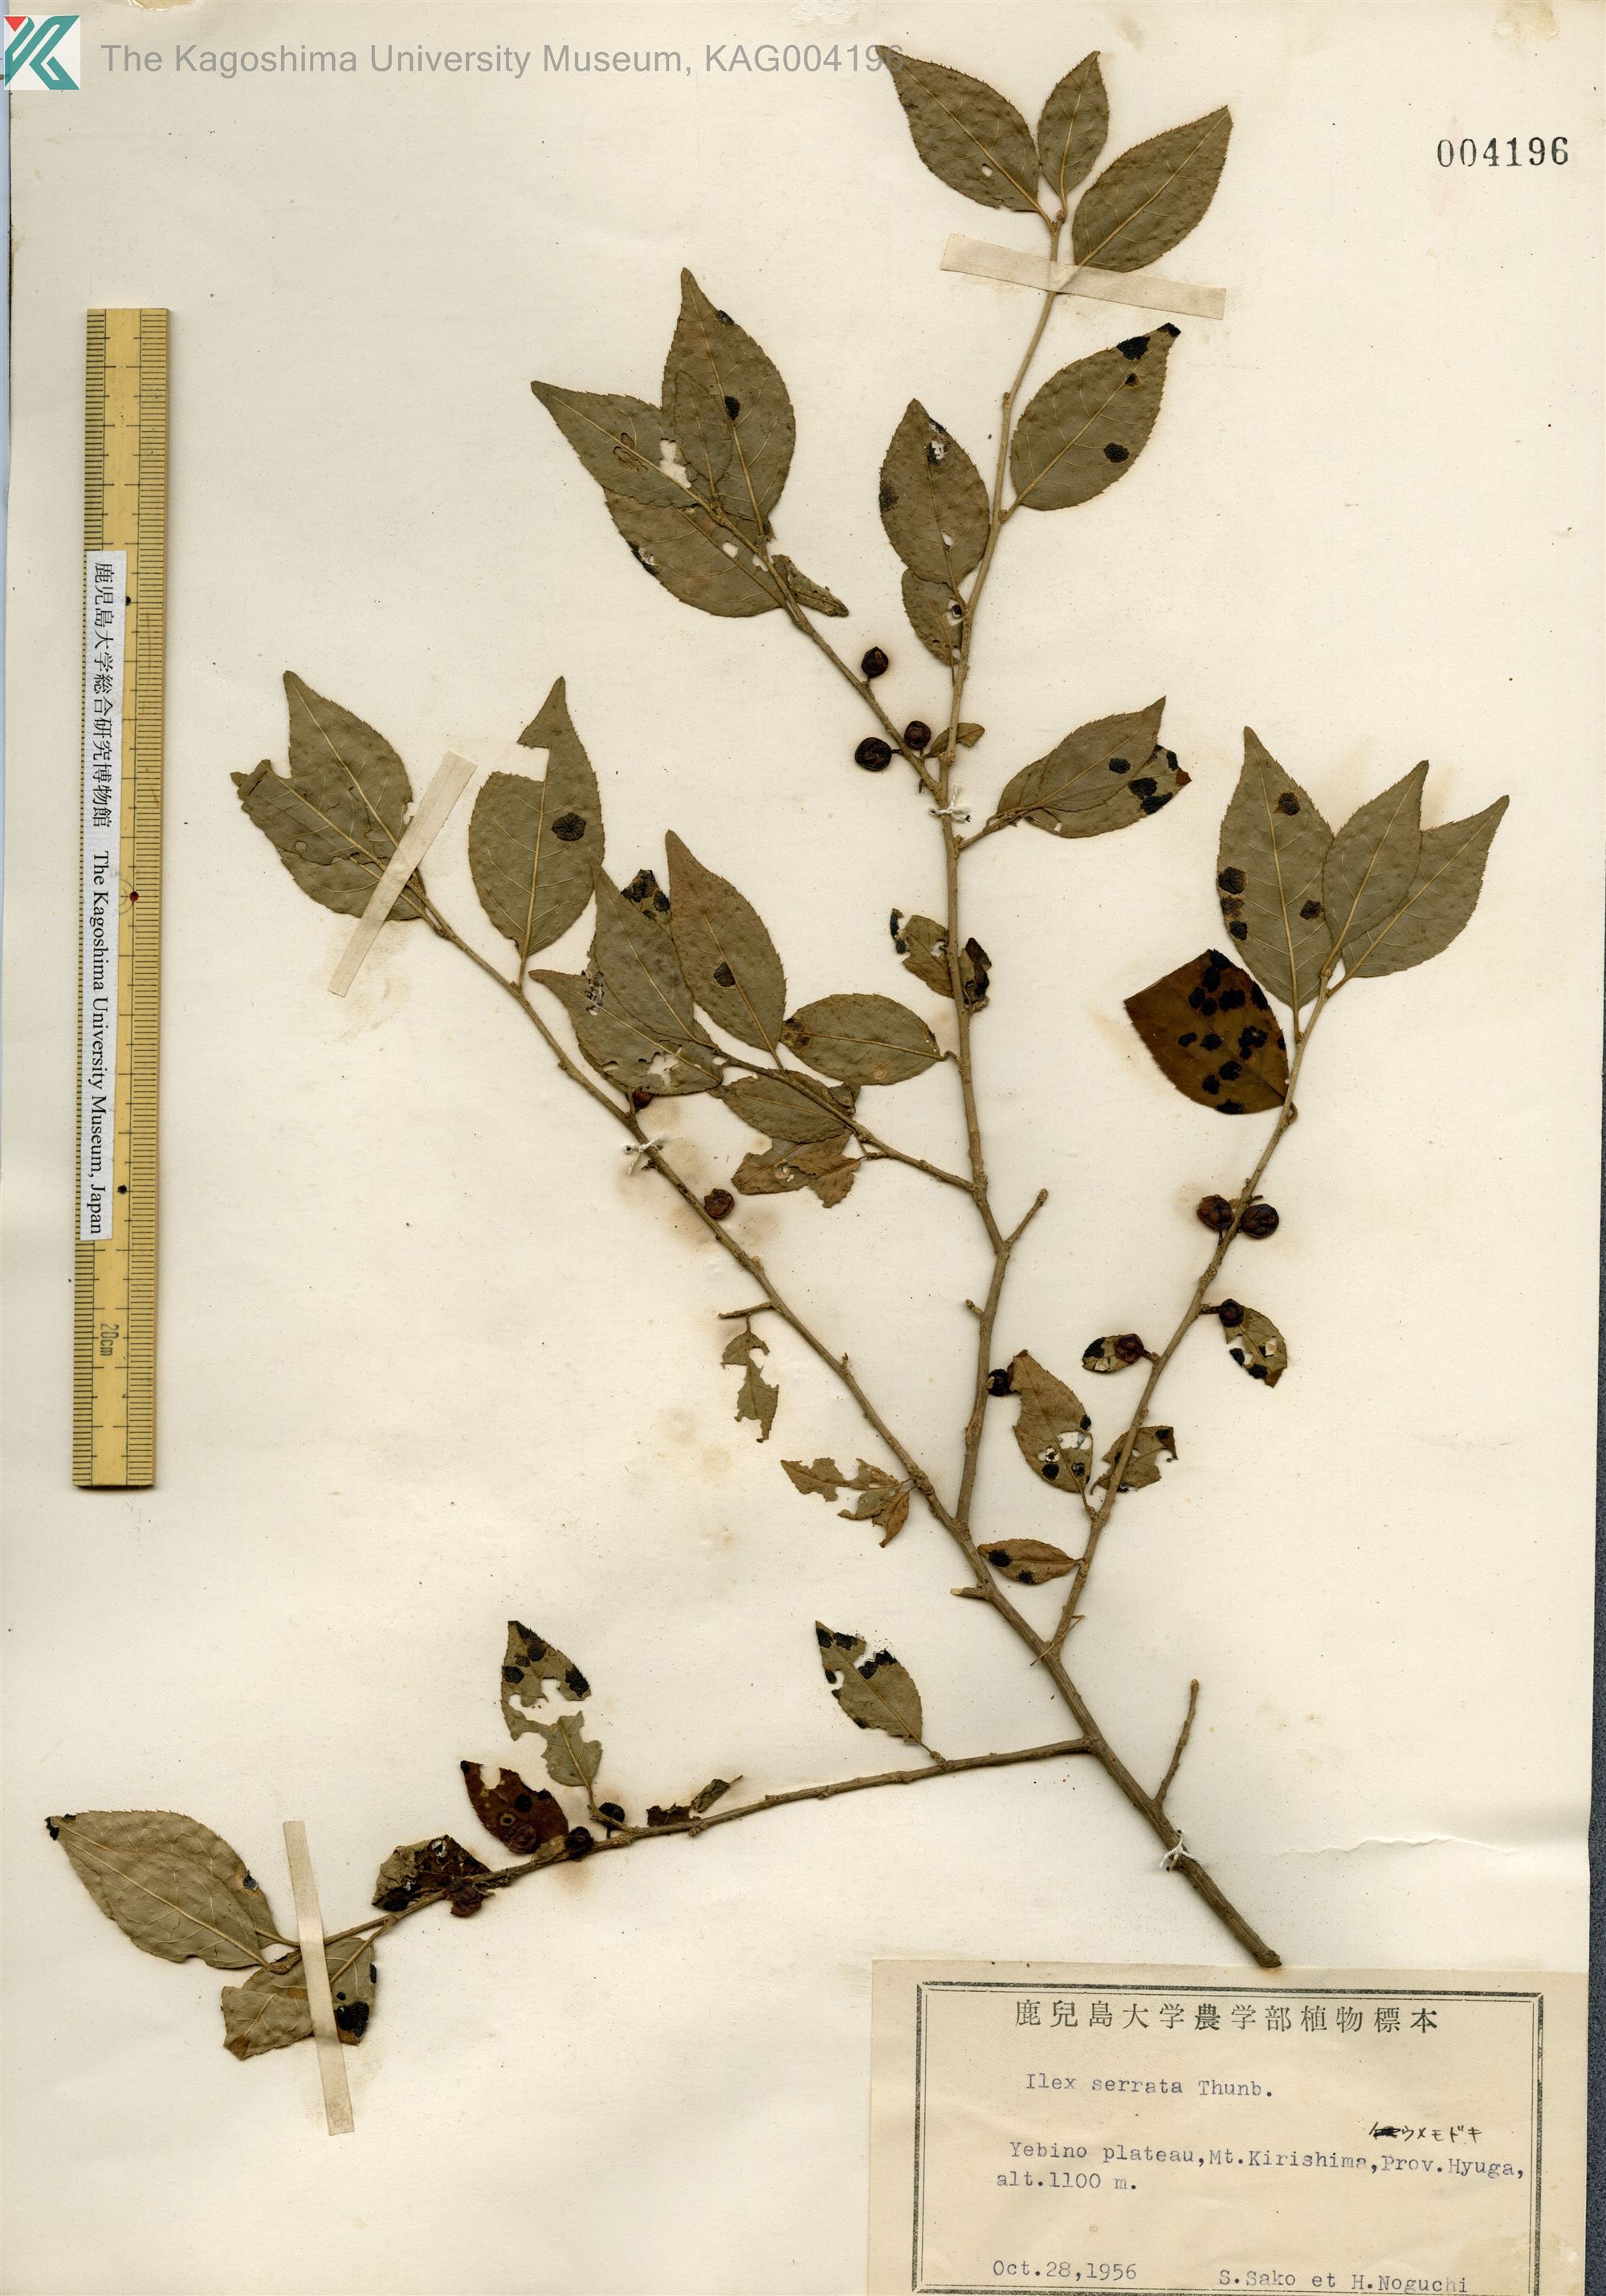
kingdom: Plantae
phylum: Tracheophyta
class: Magnoliopsida
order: Aquifoliales
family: Aquifoliaceae
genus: Ilex
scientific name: Ilex serrata
